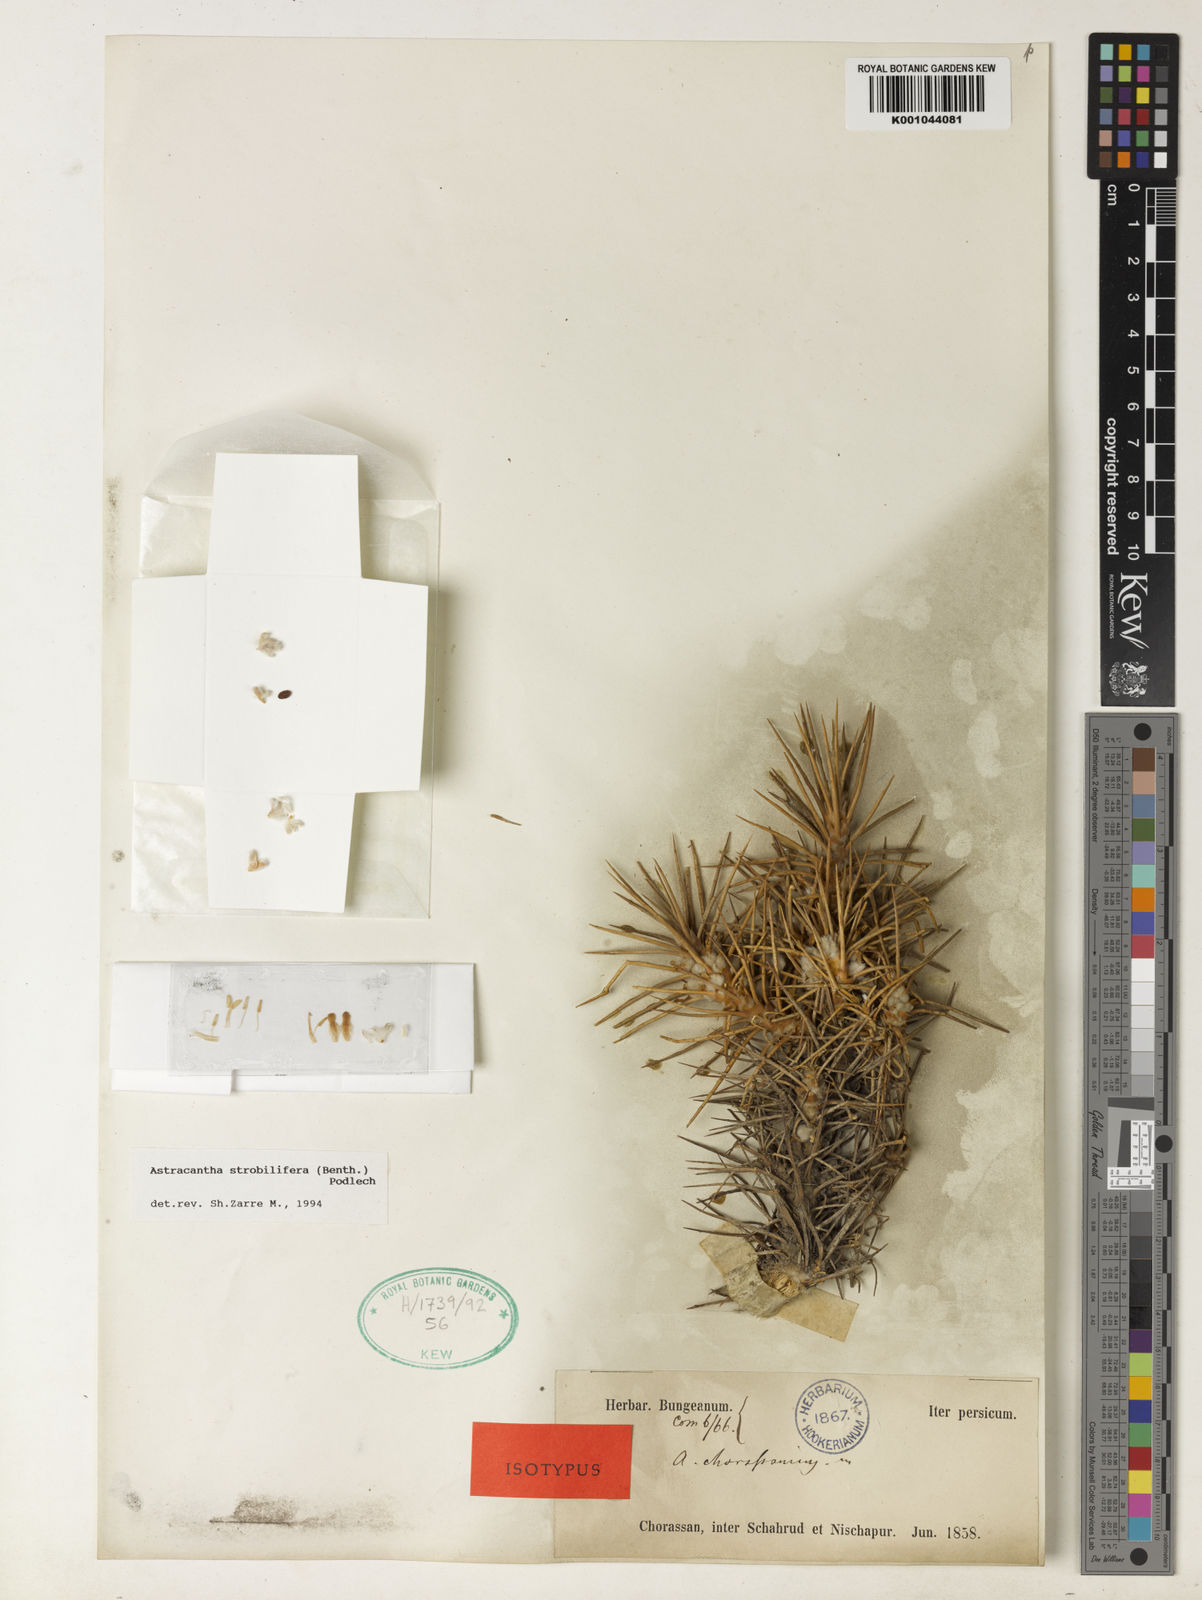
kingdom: Plantae
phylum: Tracheophyta
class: Magnoliopsida
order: Fabales
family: Fabaceae
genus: Astragalus
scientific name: Astragalus
